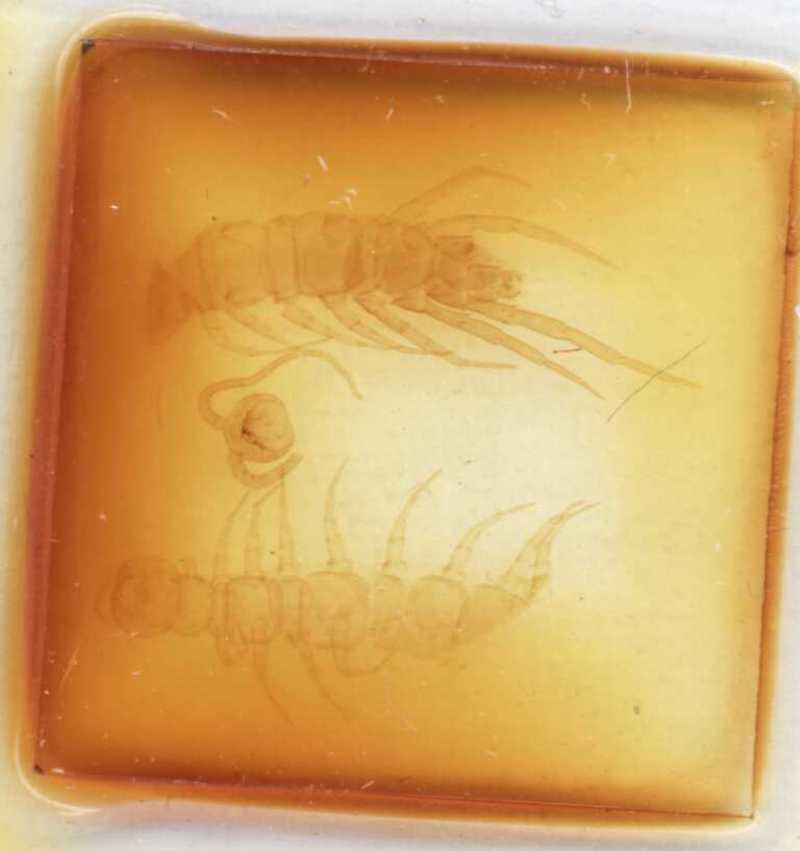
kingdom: Animalia
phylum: Arthropoda
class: Chilopoda
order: Lithobiomorpha
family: Lithobiidae
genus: Lithobius
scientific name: Lithobius melanops
